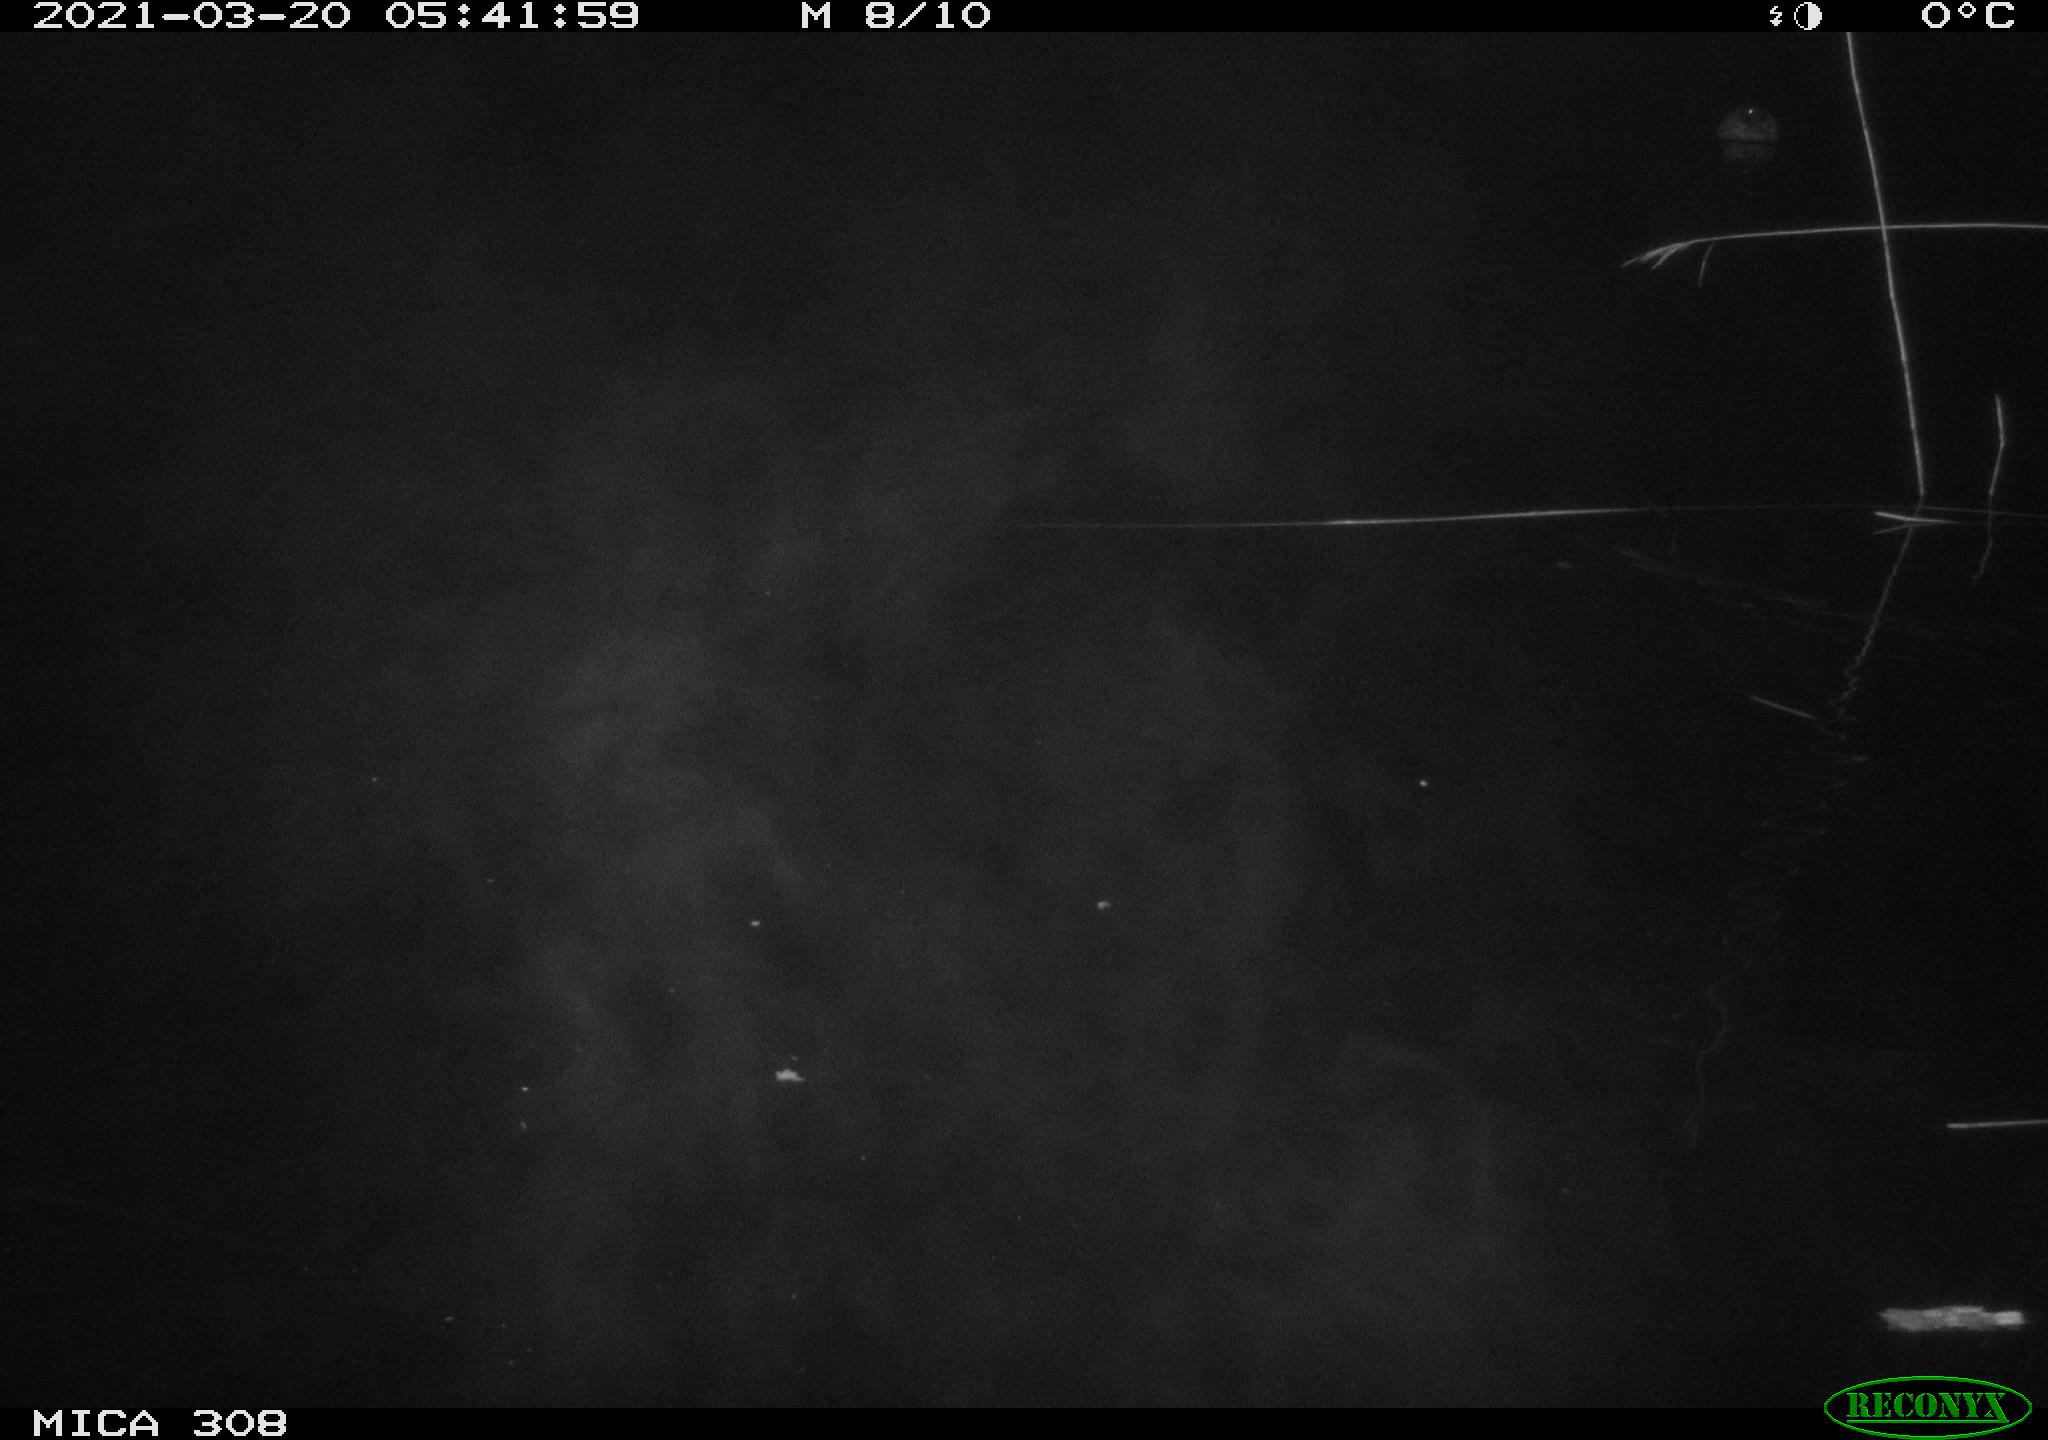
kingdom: Animalia
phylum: Chordata
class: Aves
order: Anseriformes
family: Anatidae
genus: Anas
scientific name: Anas platyrhynchos
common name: Mallard
